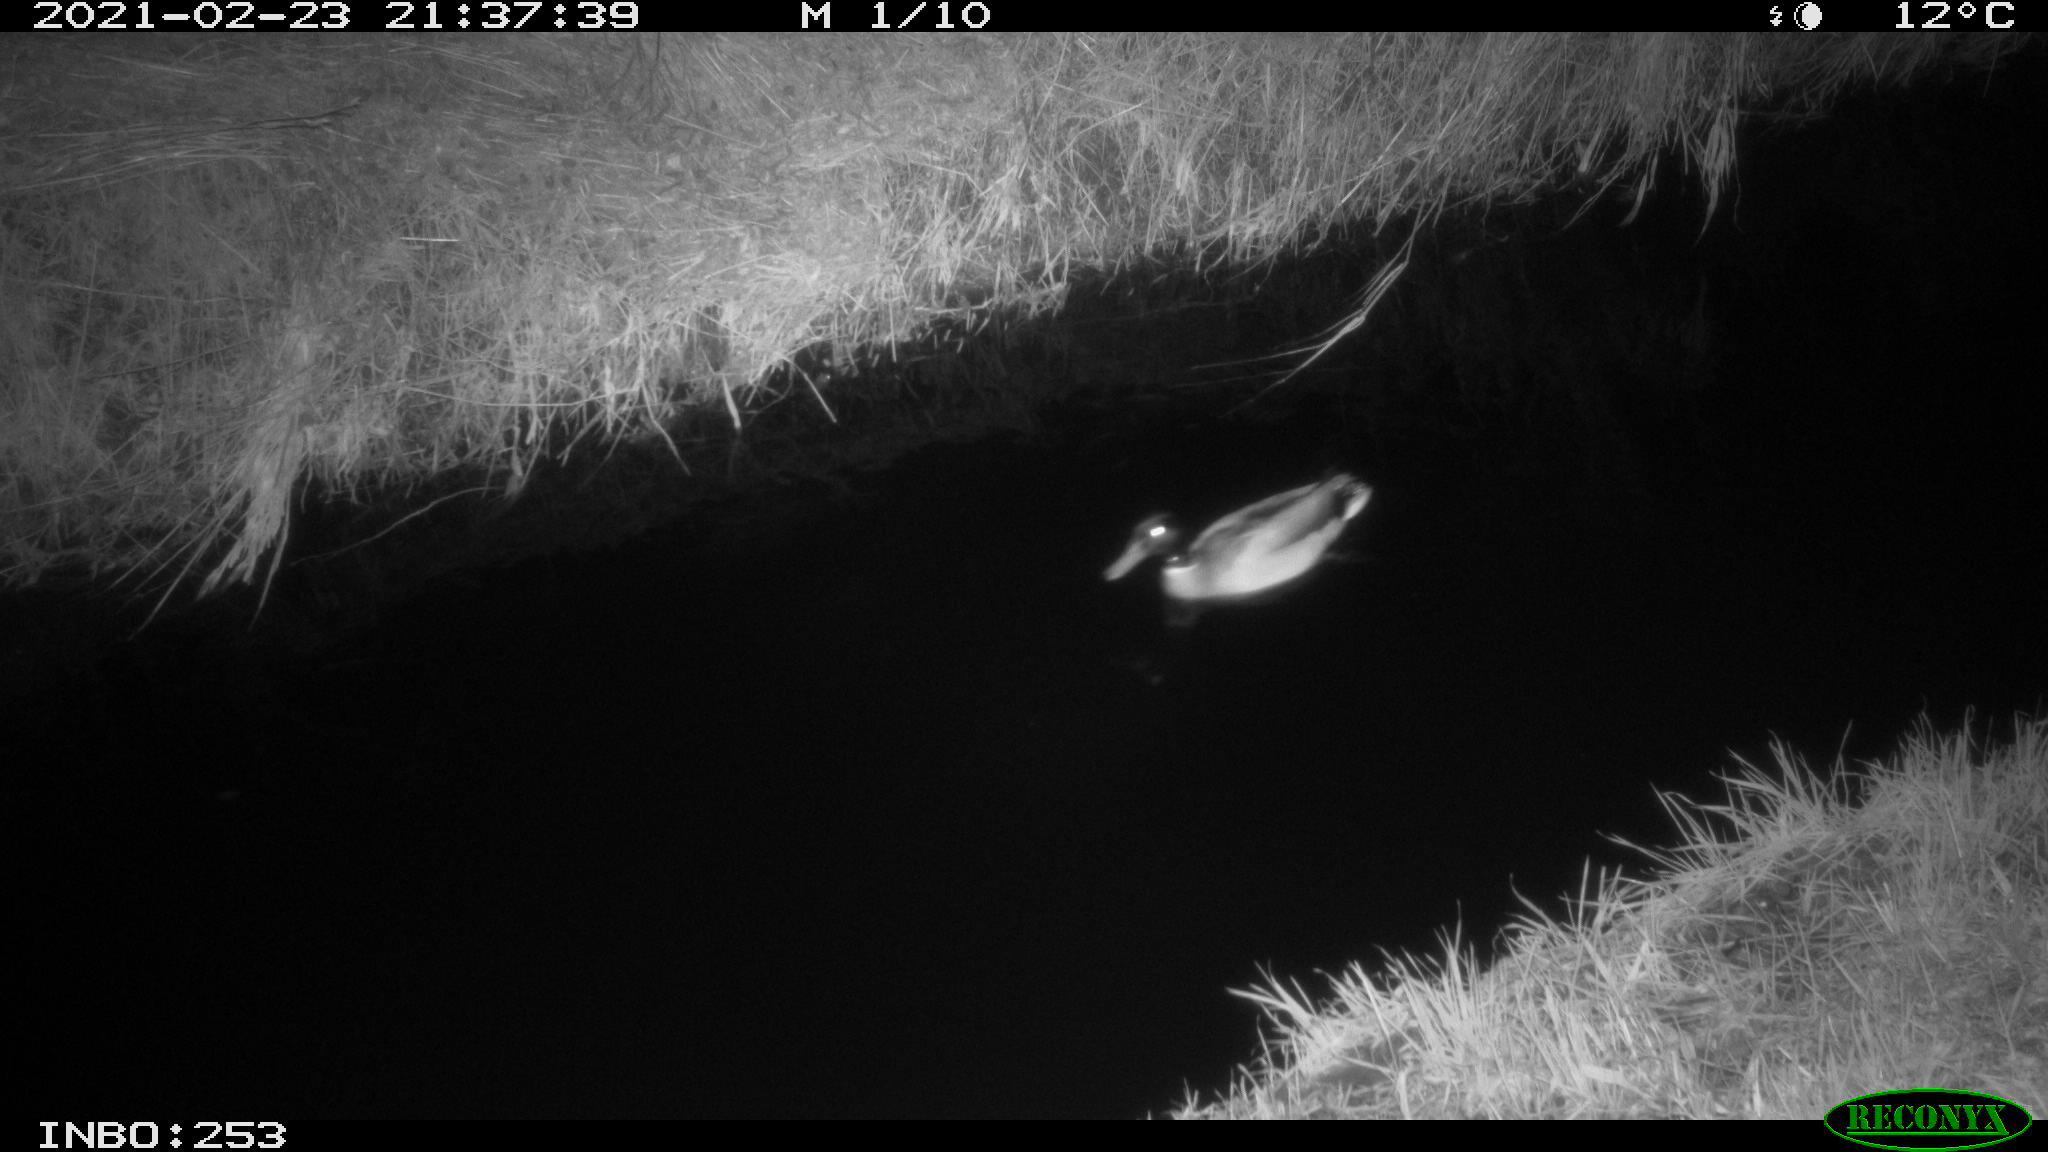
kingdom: Animalia
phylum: Chordata
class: Aves
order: Anseriformes
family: Anatidae
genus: Anas
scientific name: Anas platyrhynchos
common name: Mallard
